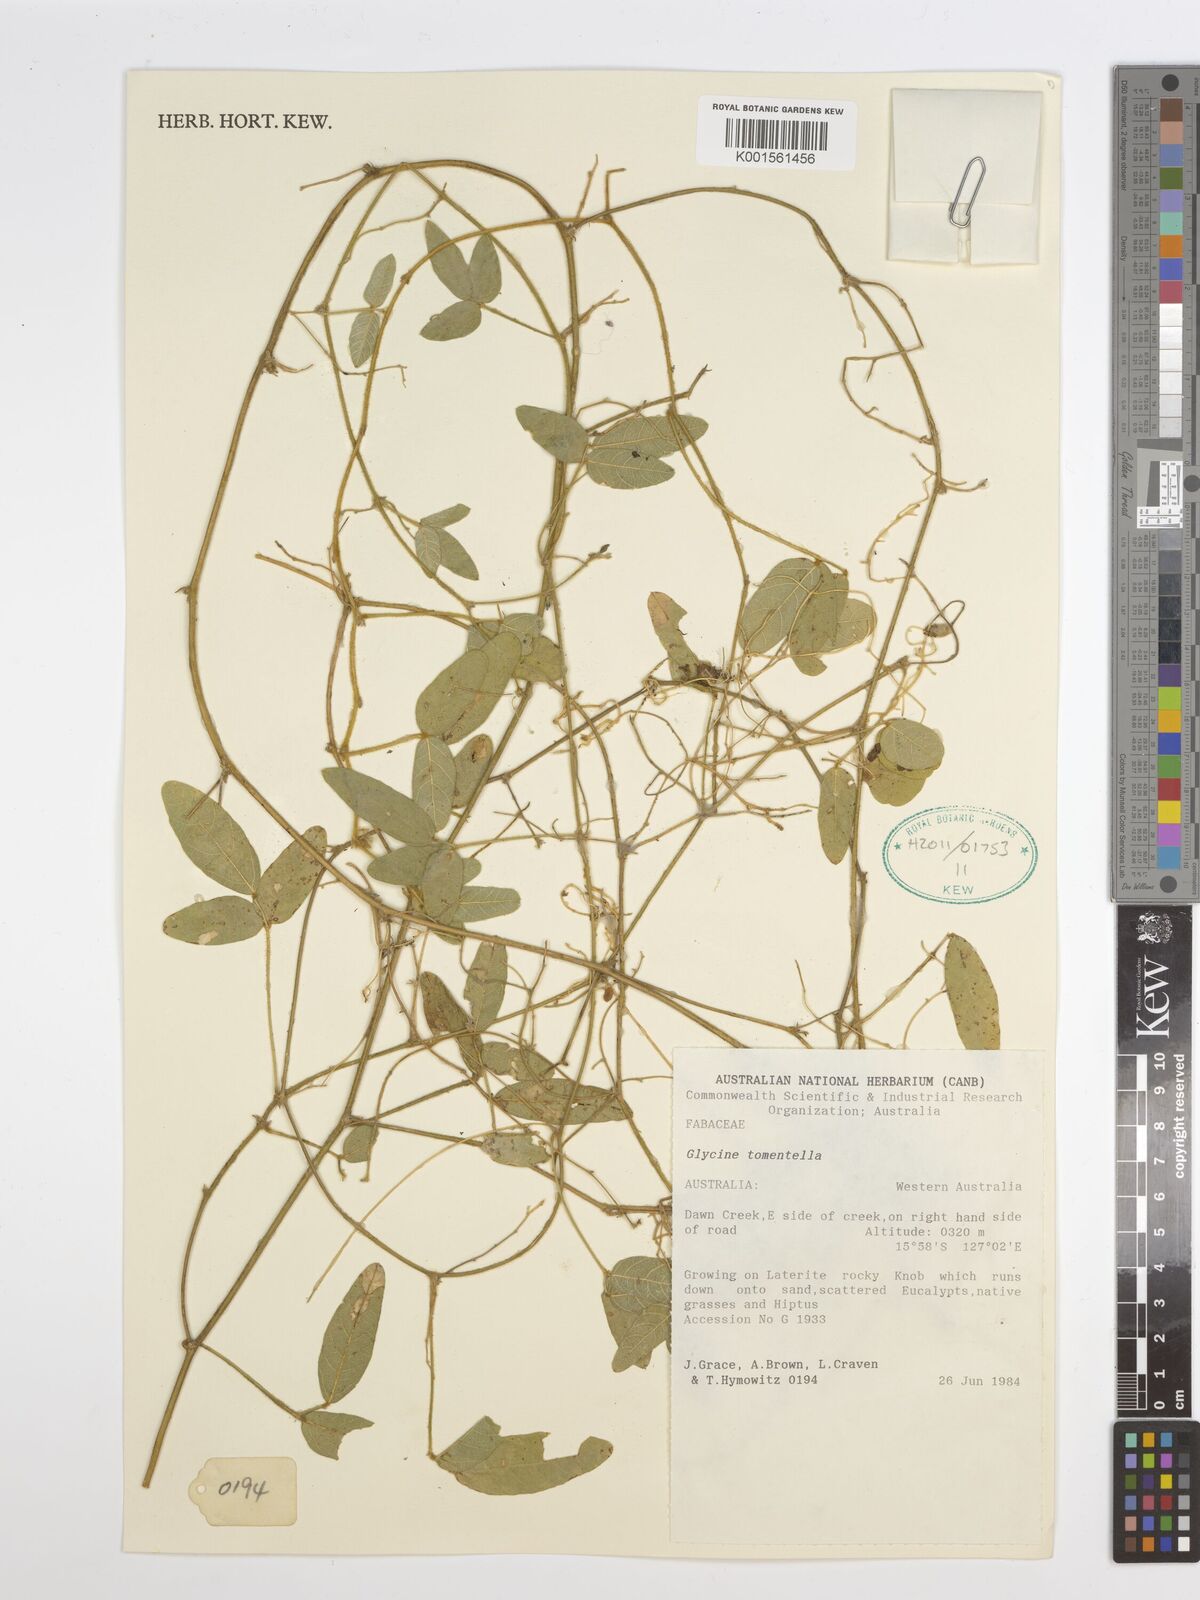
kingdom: Plantae
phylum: Tracheophyta
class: Magnoliopsida
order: Fabales
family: Fabaceae
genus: Glycine
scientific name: Glycine tomentella
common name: Hairy glycine
